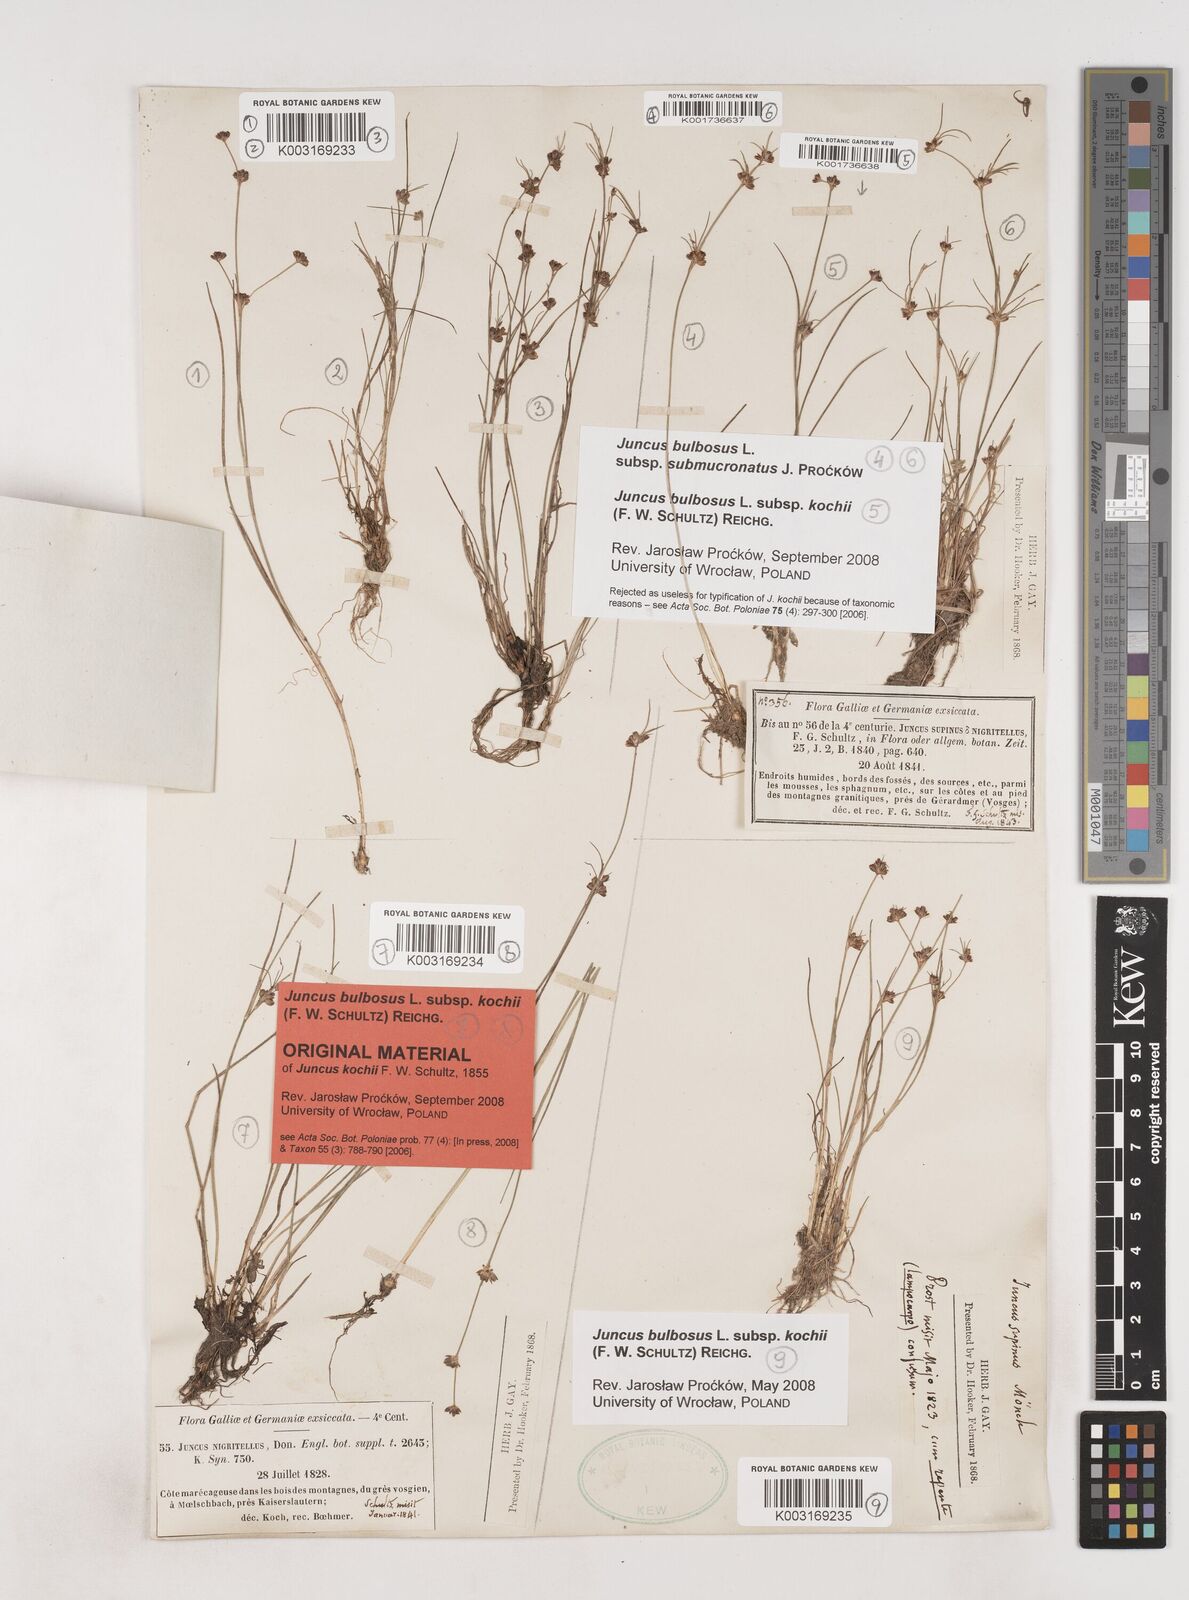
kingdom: Plantae
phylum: Tracheophyta
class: Liliopsida
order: Poales
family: Juncaceae
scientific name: Juncaceae
